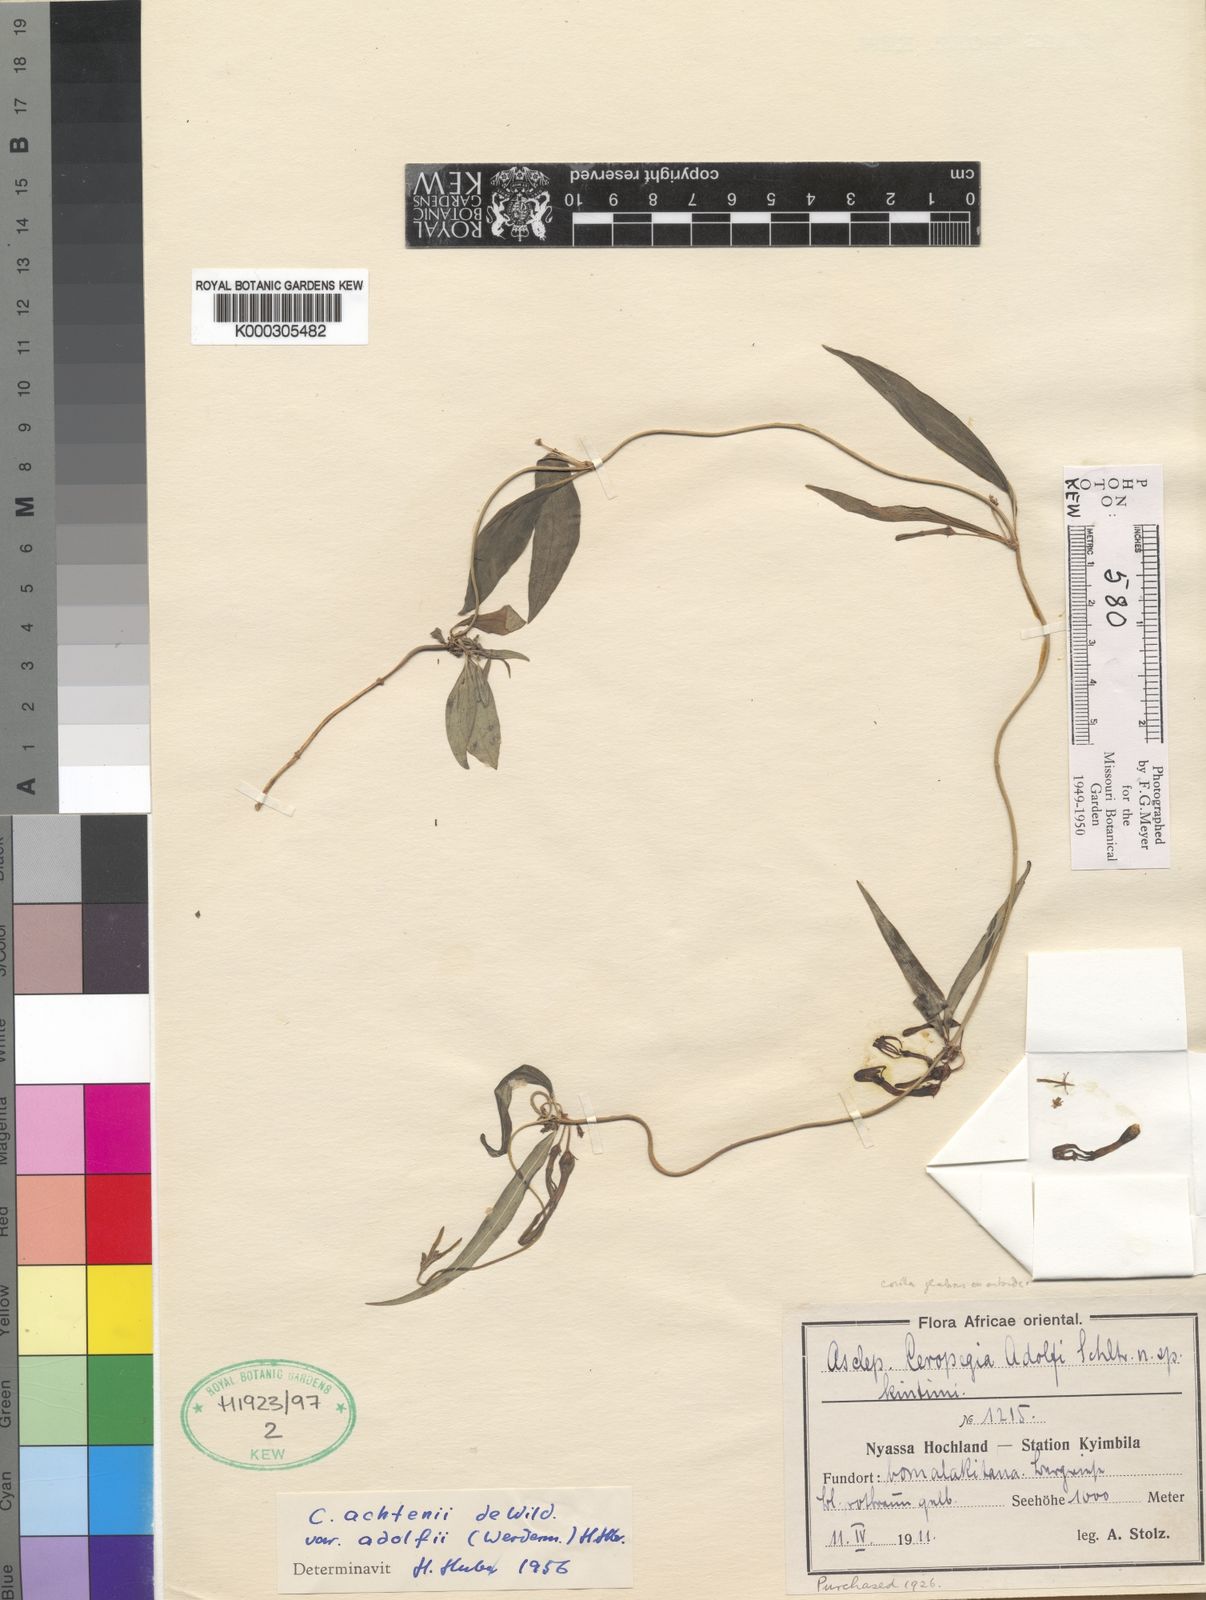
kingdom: Plantae
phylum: Tracheophyta
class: Magnoliopsida
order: Gentianales
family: Apocynaceae
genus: Ceropegia
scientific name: Ceropegia achtenii
